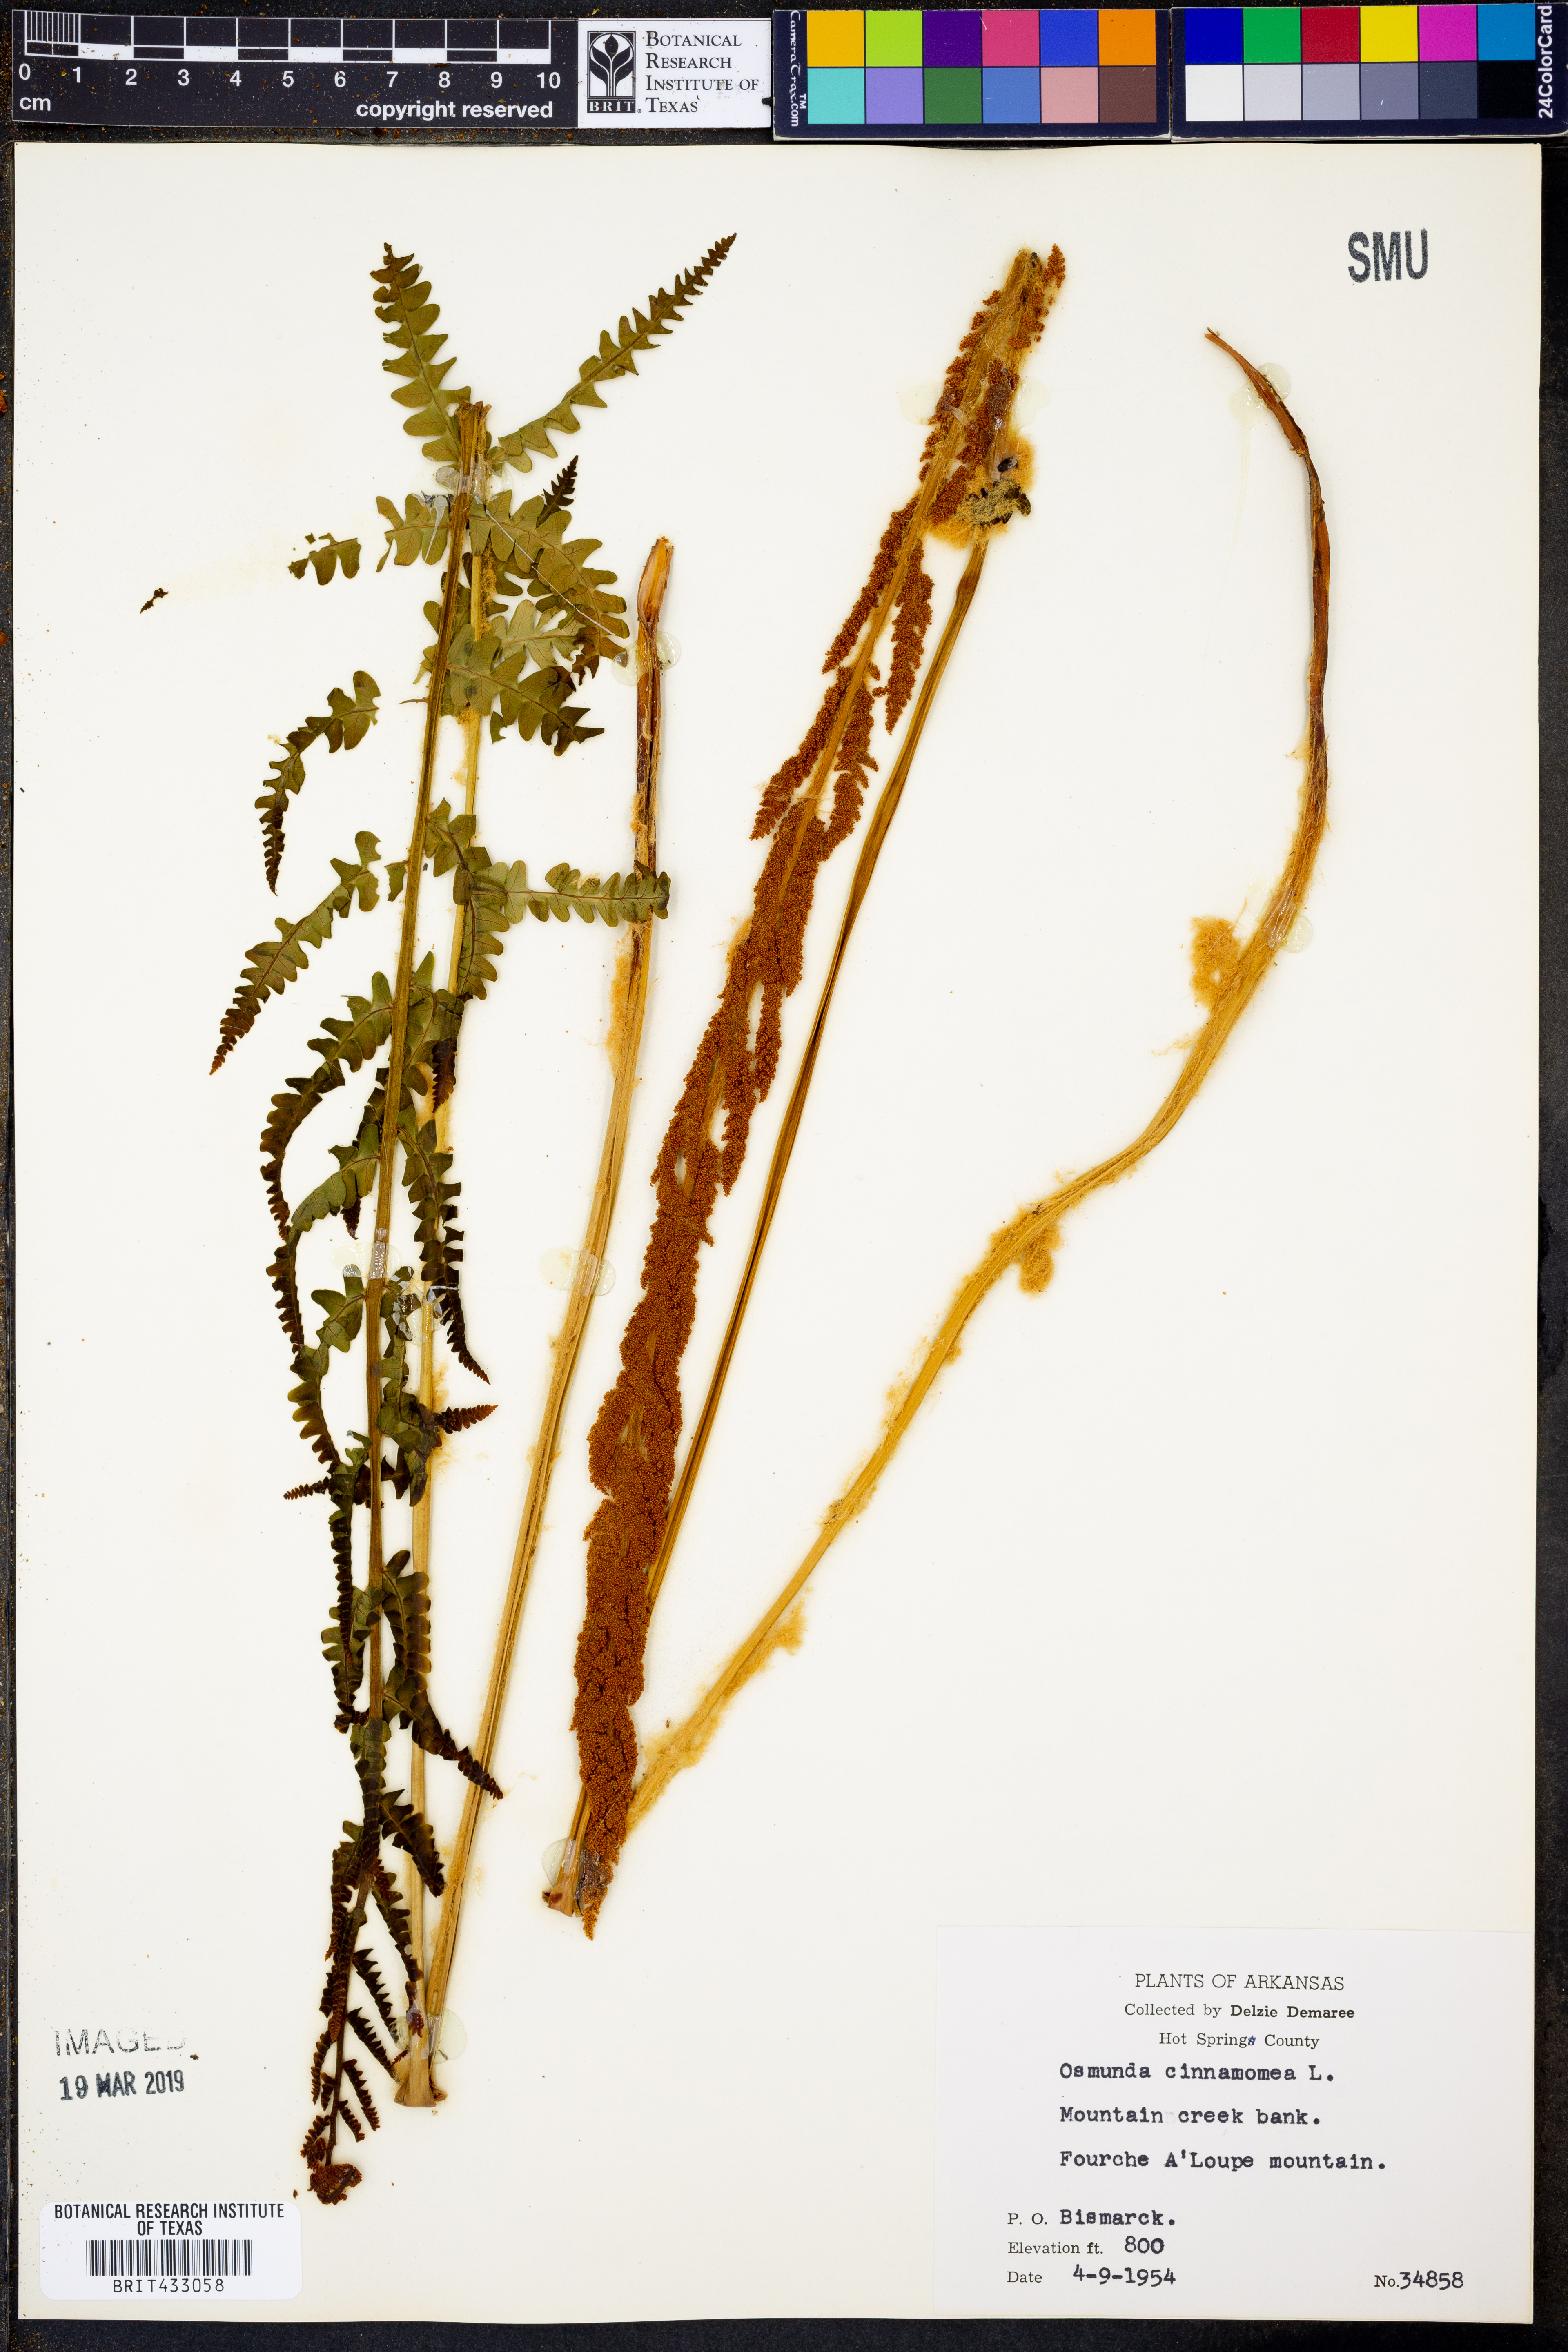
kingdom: Plantae
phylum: Tracheophyta
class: Polypodiopsida
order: Osmundales
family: Osmundaceae
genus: Osmundastrum
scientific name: Osmundastrum cinnamomeum
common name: Cinnamon fern
